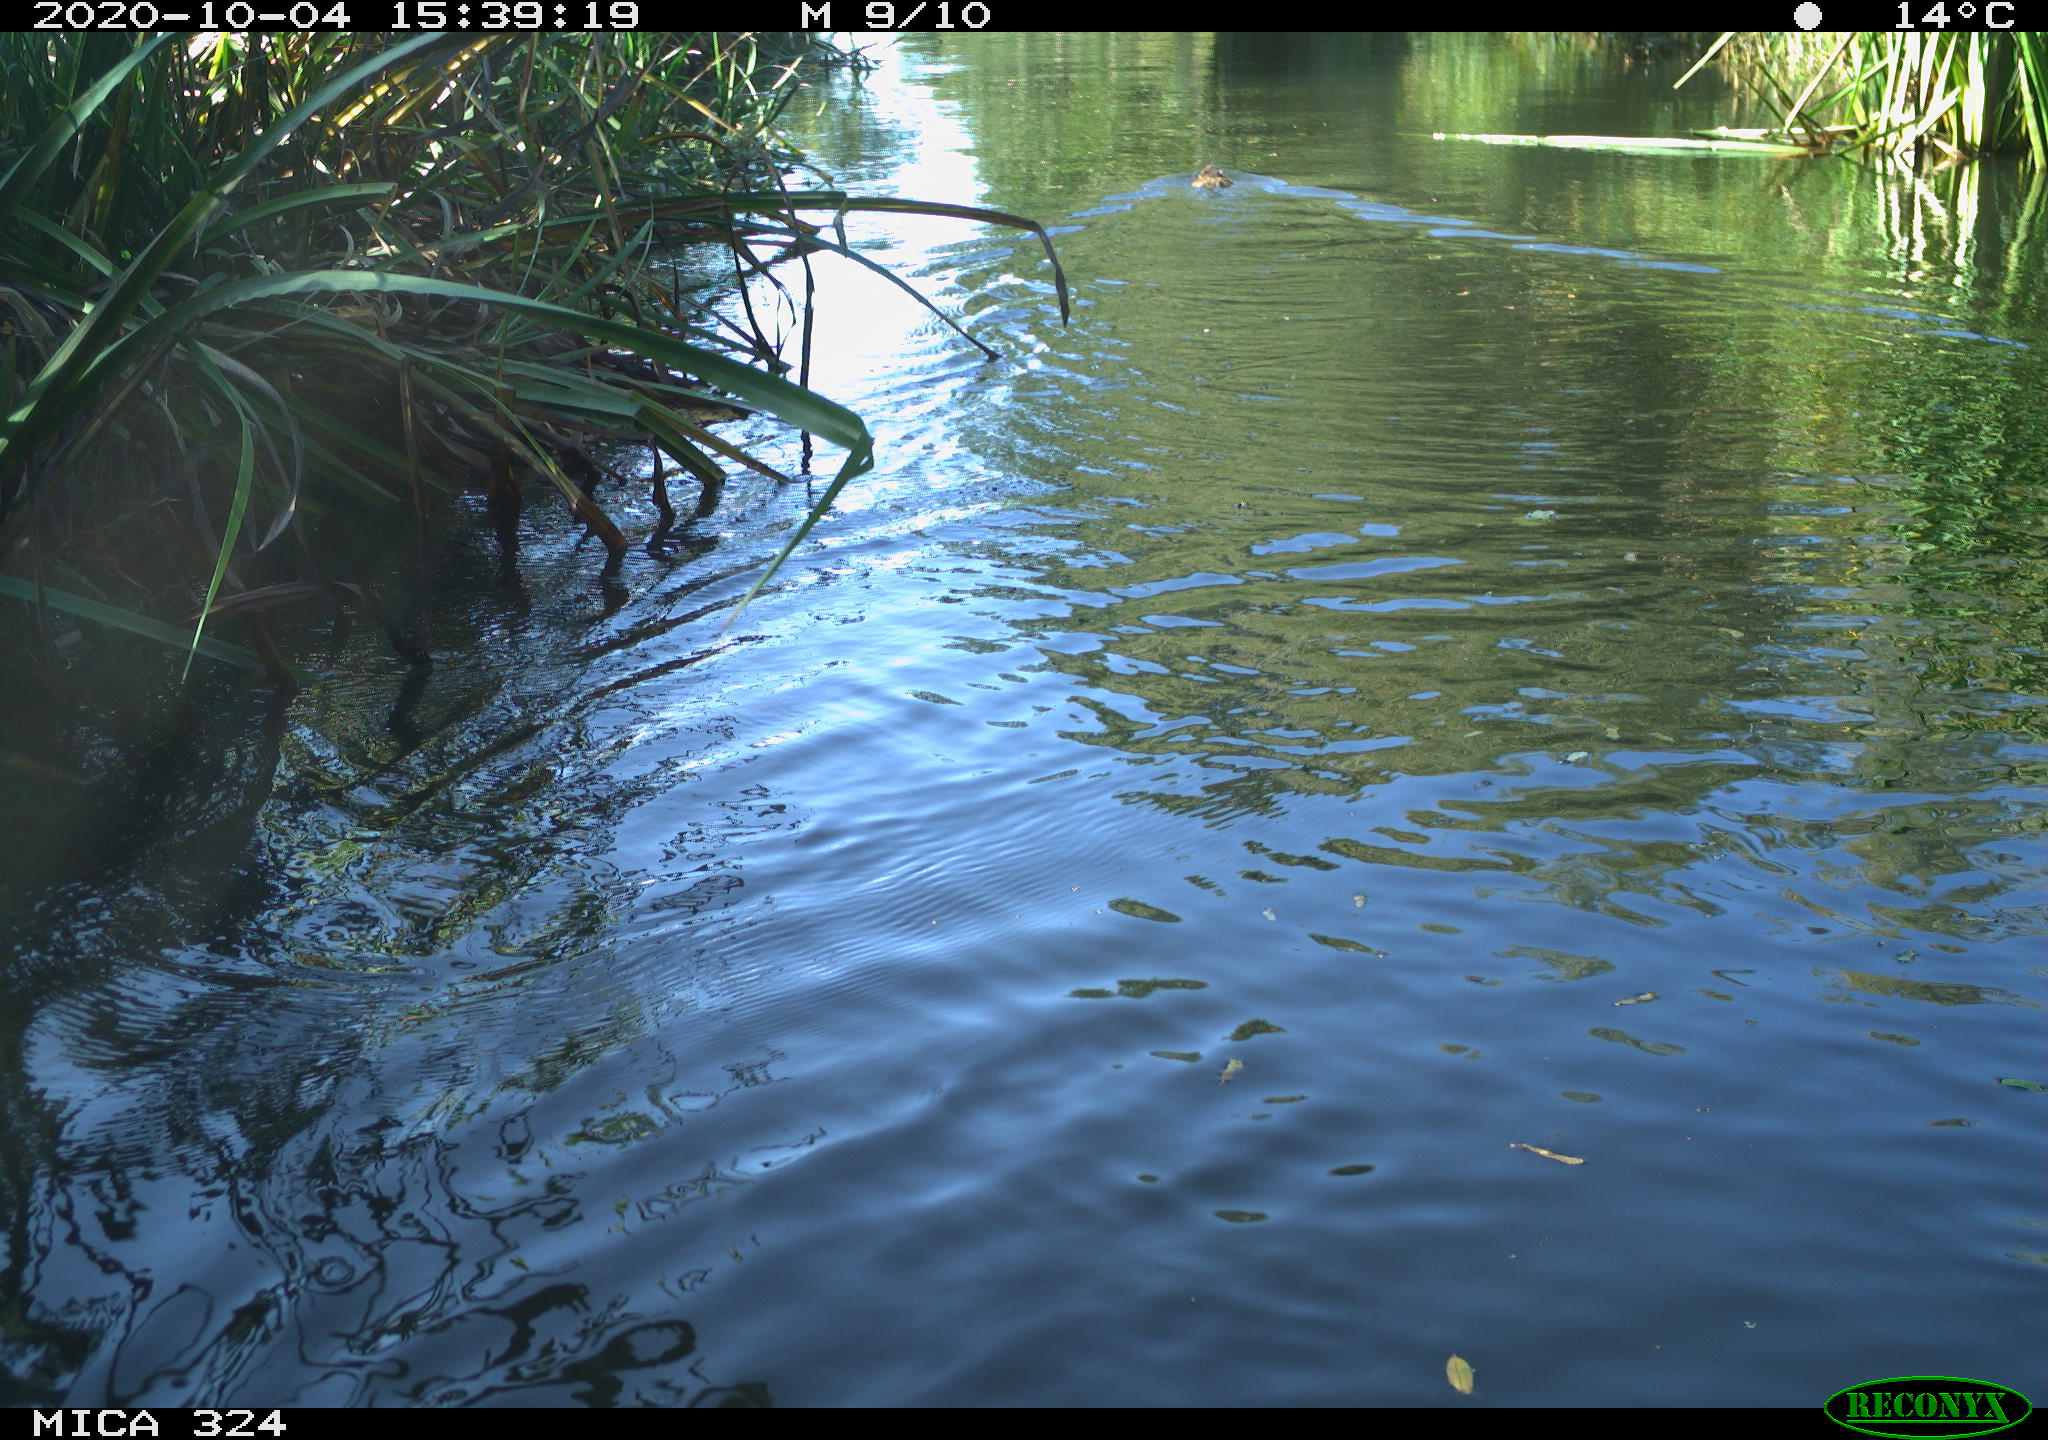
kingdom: Animalia
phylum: Chordata
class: Mammalia
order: Rodentia
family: Cricetidae
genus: Ondatra
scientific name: Ondatra zibethicus
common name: Muskrat
